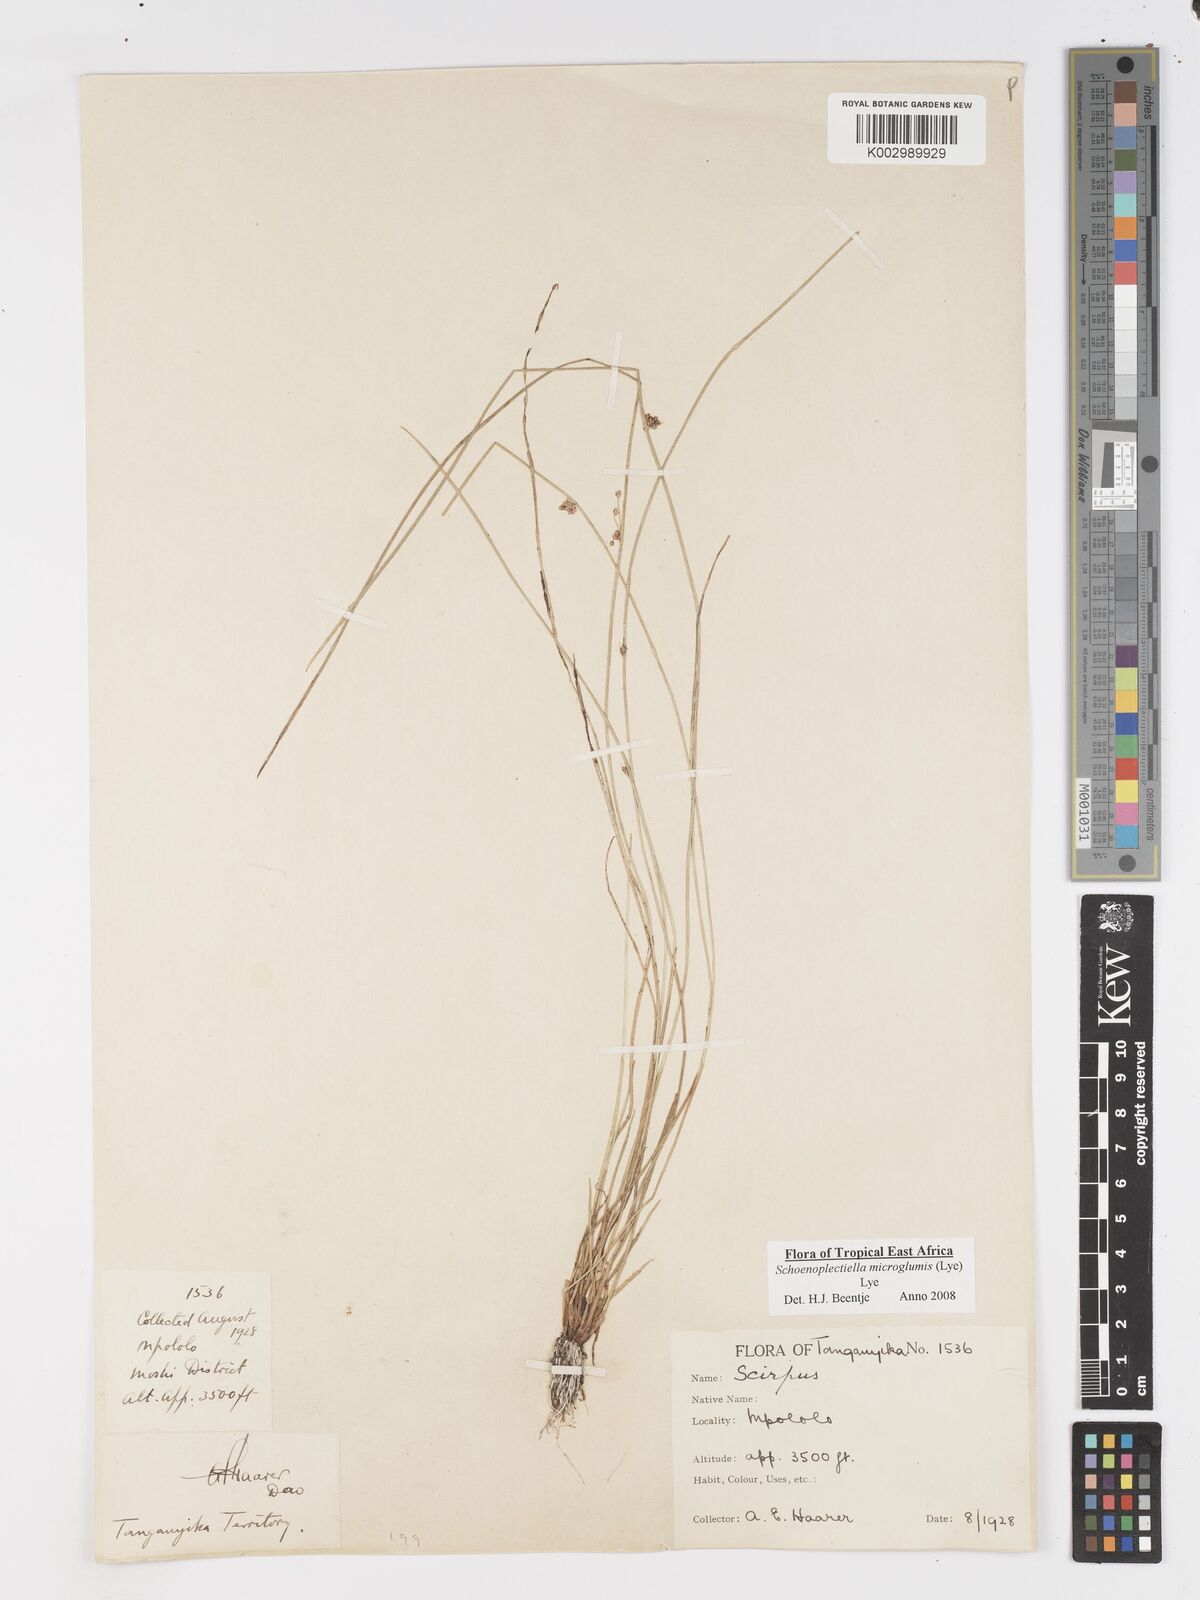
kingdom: Plantae
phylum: Tracheophyta
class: Liliopsida
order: Poales
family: Cyperaceae
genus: Schoenoplectiella
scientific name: Schoenoplectiella microglumis
